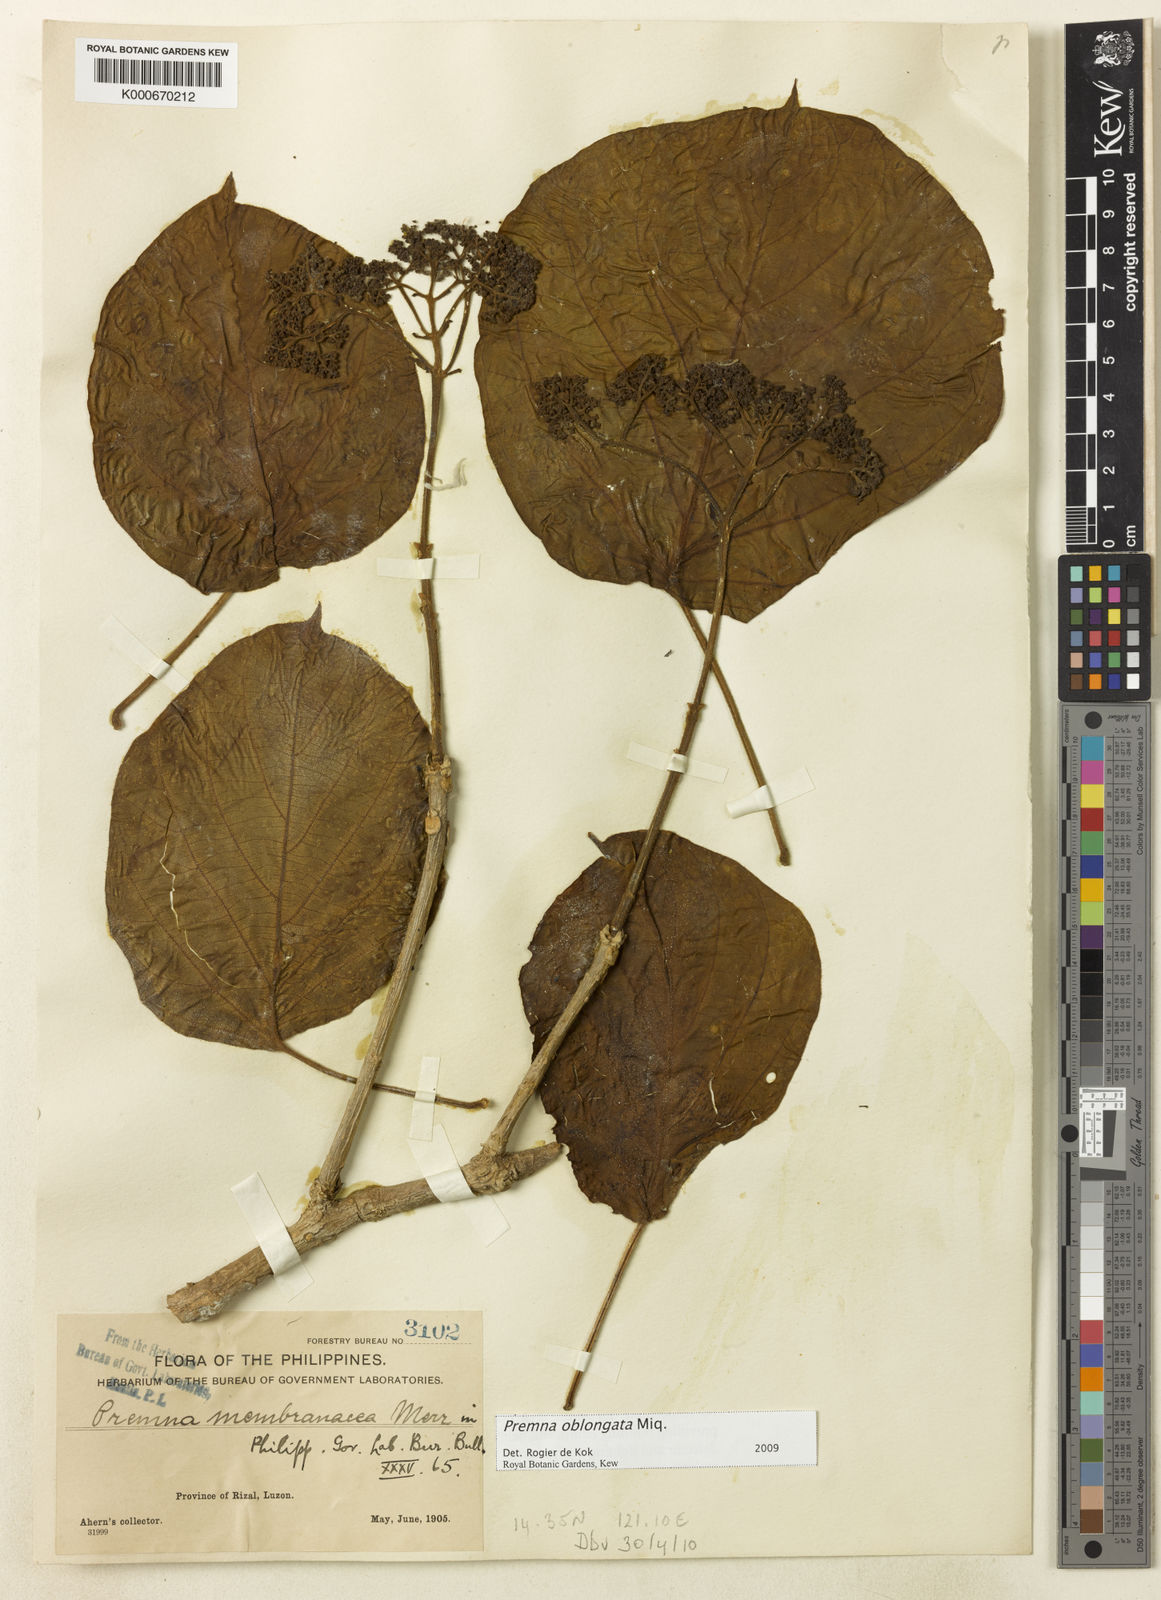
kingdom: Plantae
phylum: Tracheophyta
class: Magnoliopsida
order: Lamiales
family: Lamiaceae
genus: Premna
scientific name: Premna oblongata
